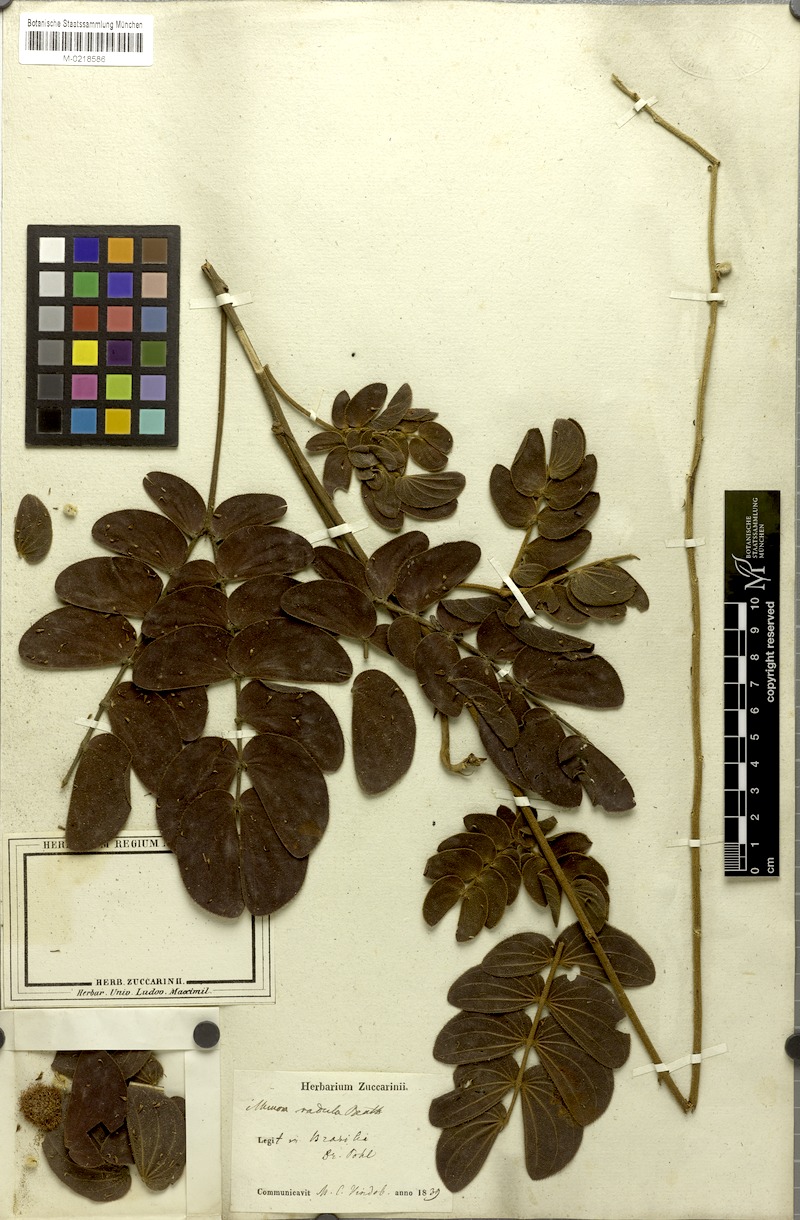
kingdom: Plantae
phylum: Tracheophyta
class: Magnoliopsida
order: Fabales
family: Fabaceae
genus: Mimosa
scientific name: Mimosa radula
